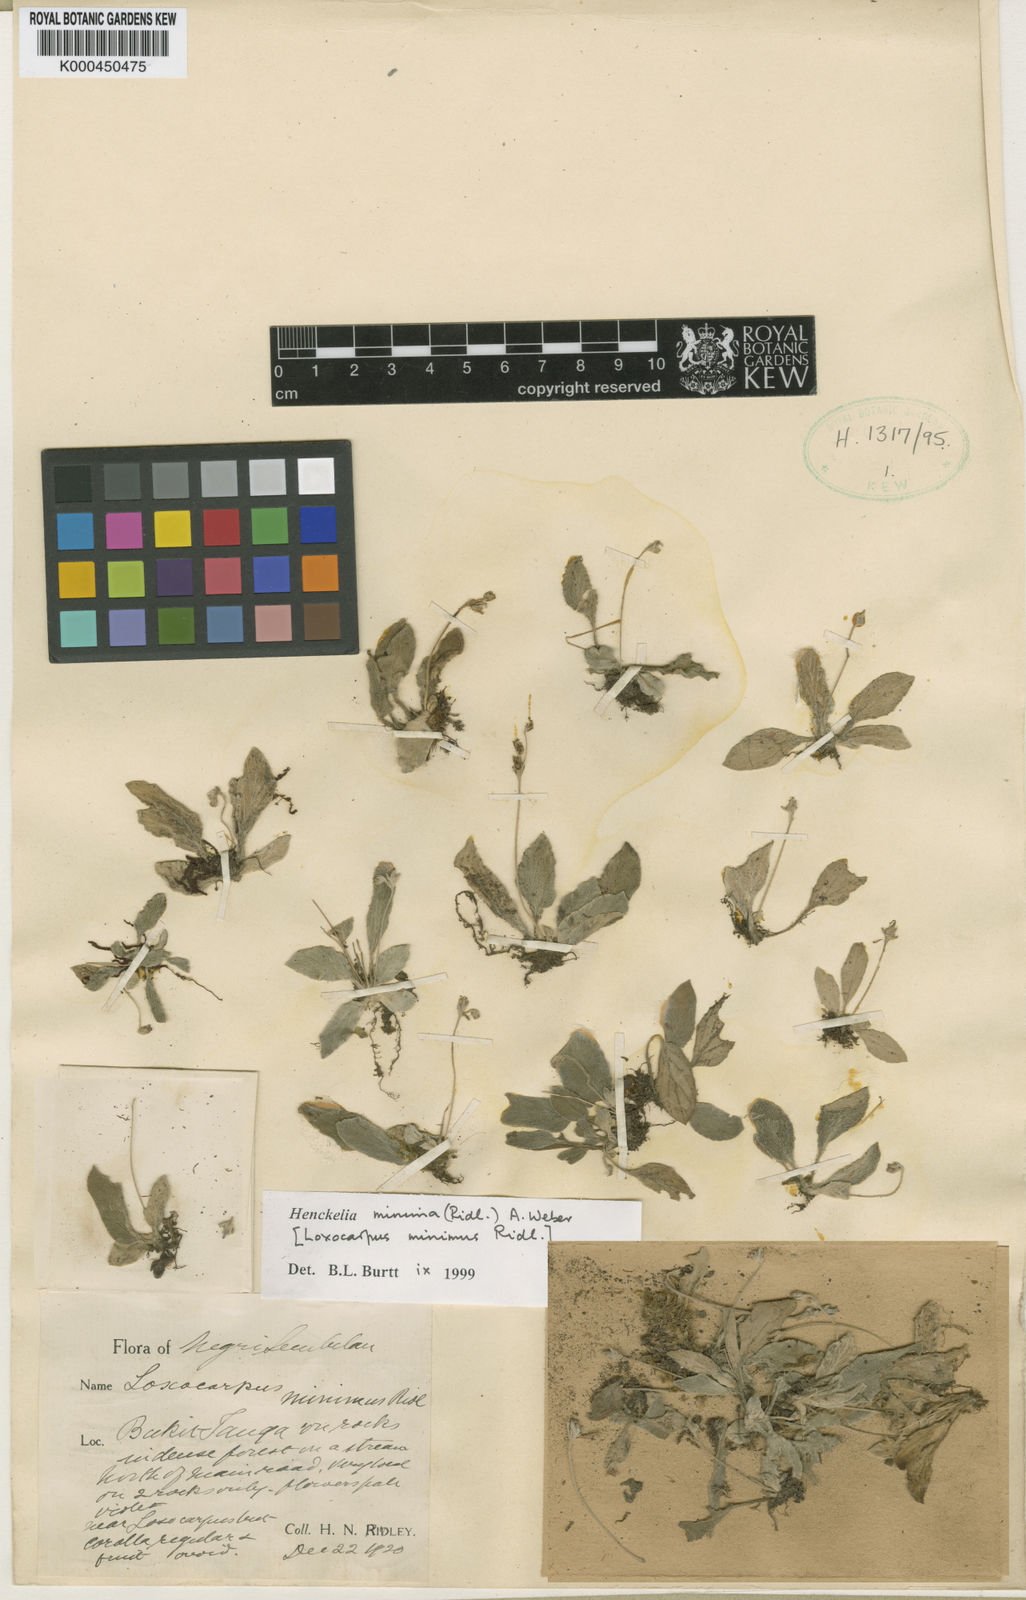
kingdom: Plantae
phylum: Tracheophyta
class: Magnoliopsida
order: Lamiales
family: Gesneriaceae
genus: Henckelia
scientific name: Henckelia minima
